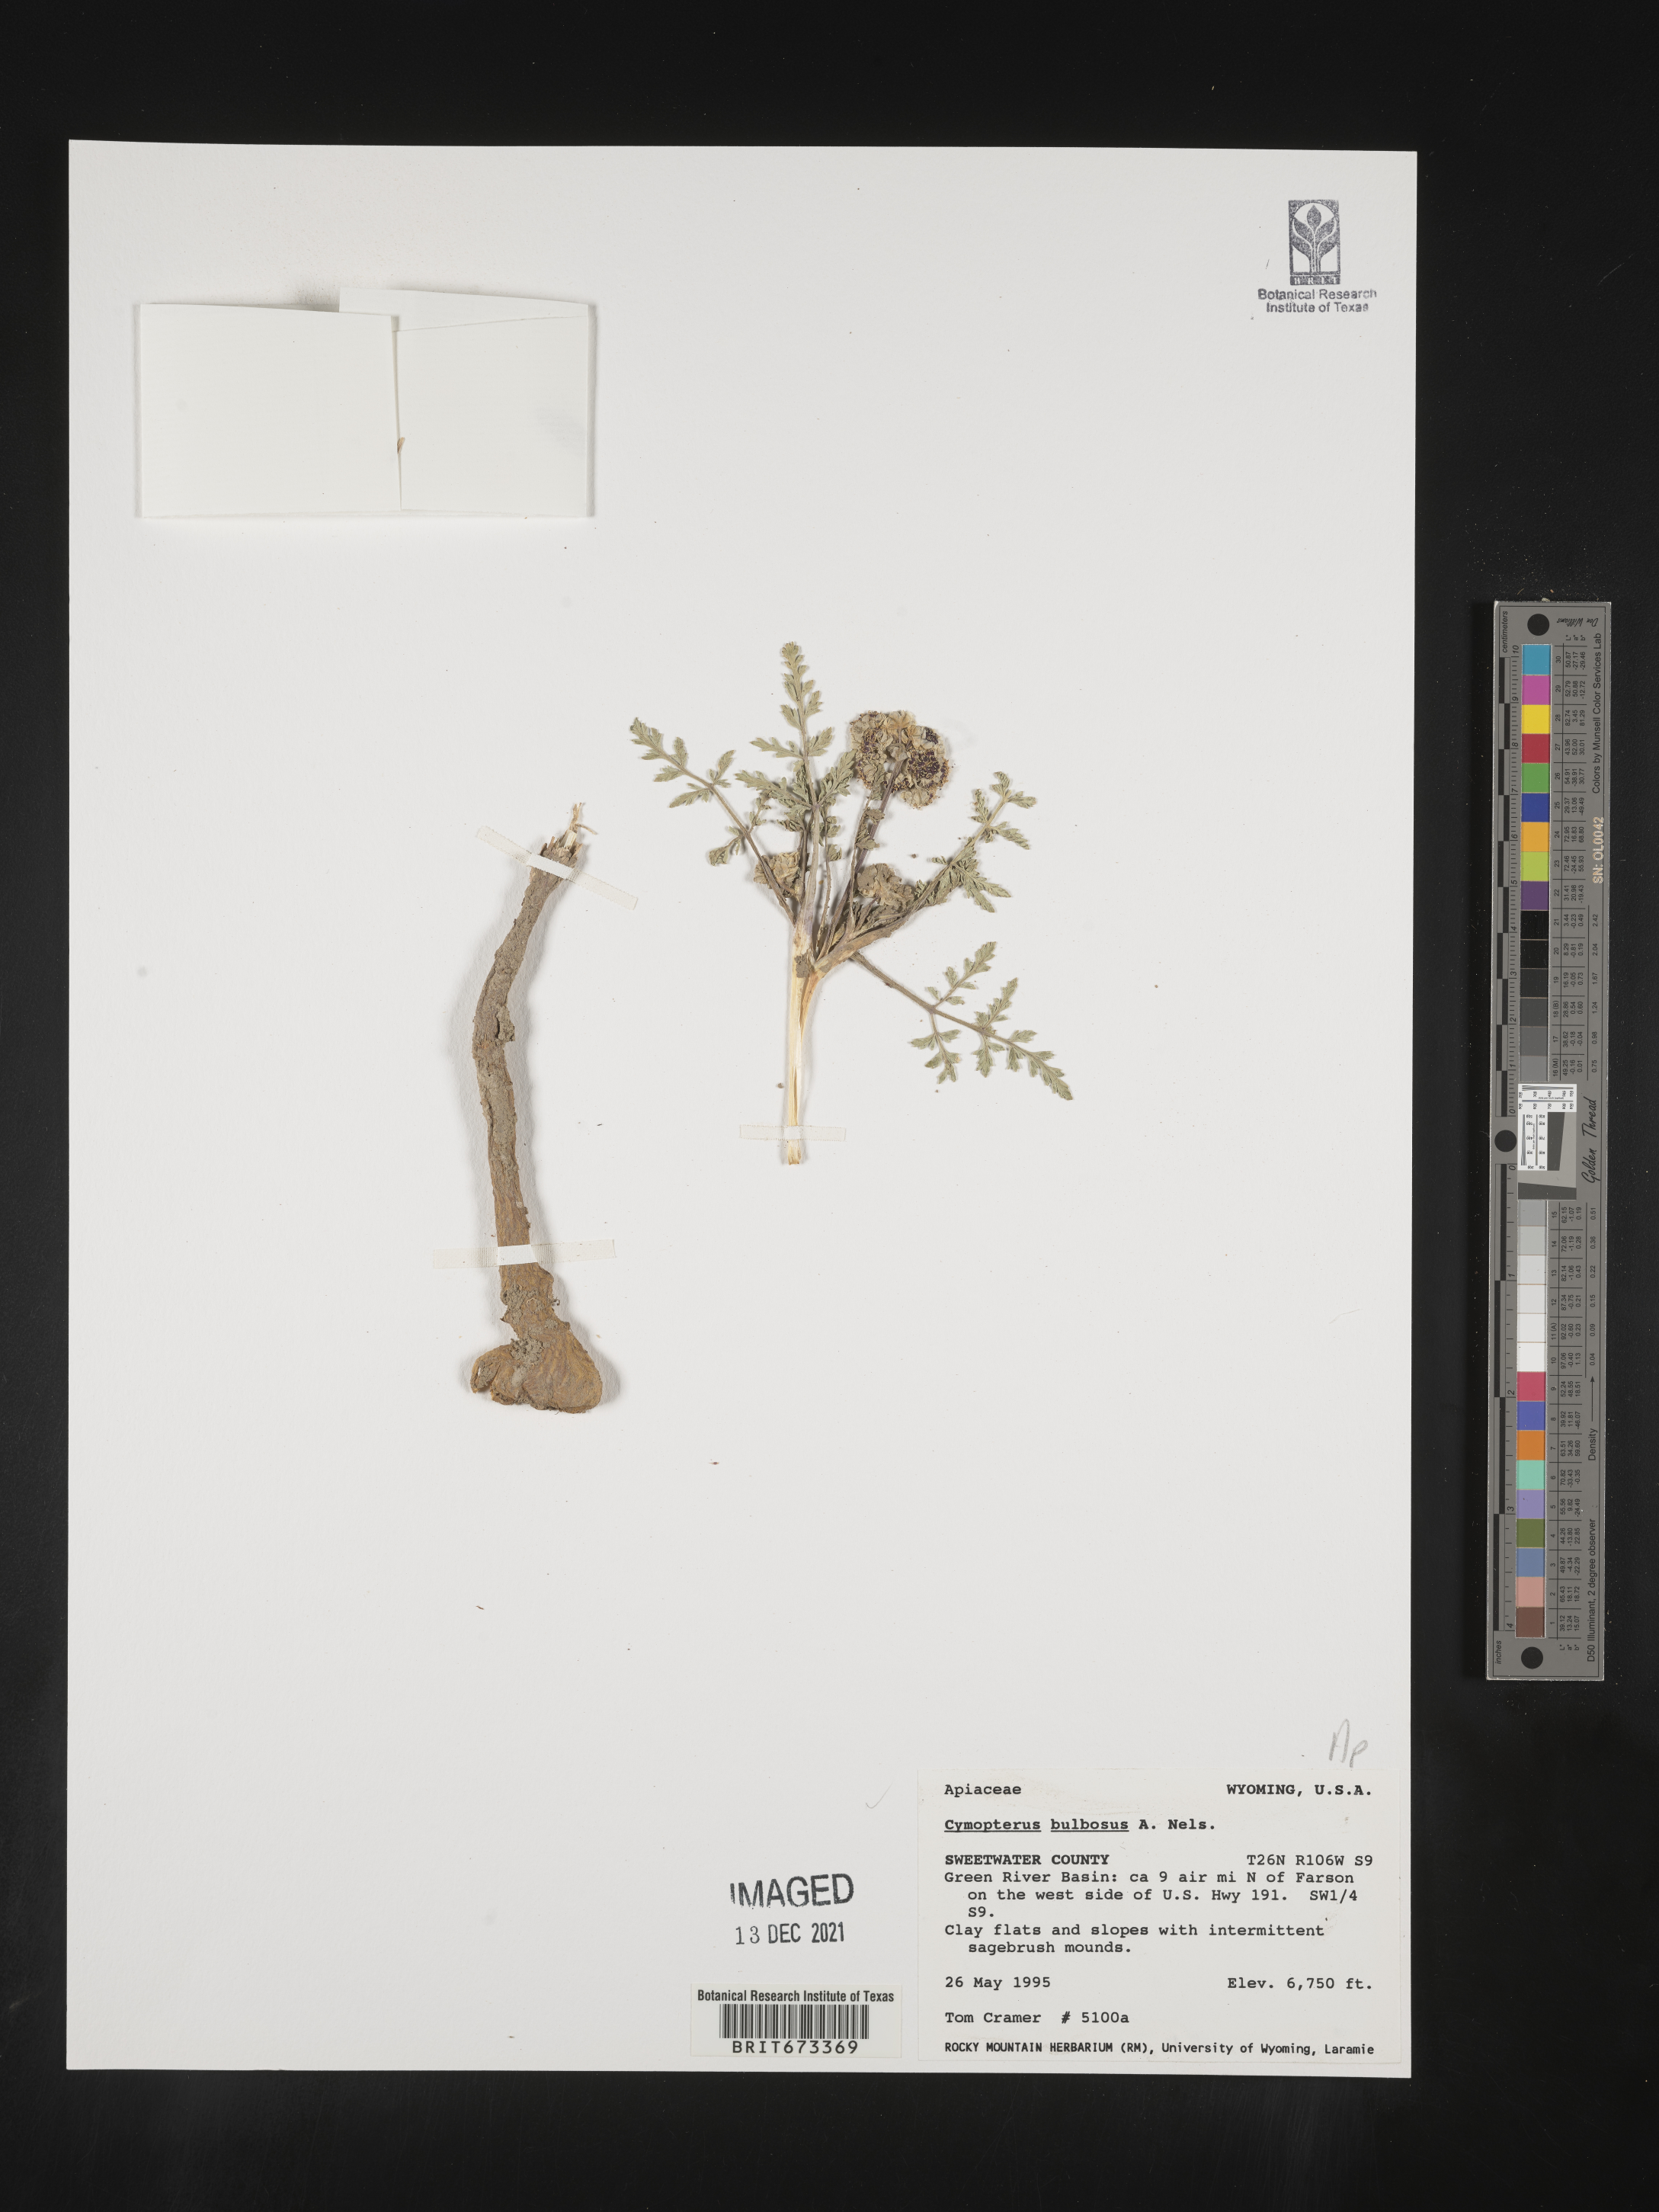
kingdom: Plantae
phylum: Tracheophyta
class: Magnoliopsida
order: Apiales
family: Apiaceae
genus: Vesper
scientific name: Vesper bulbosus
